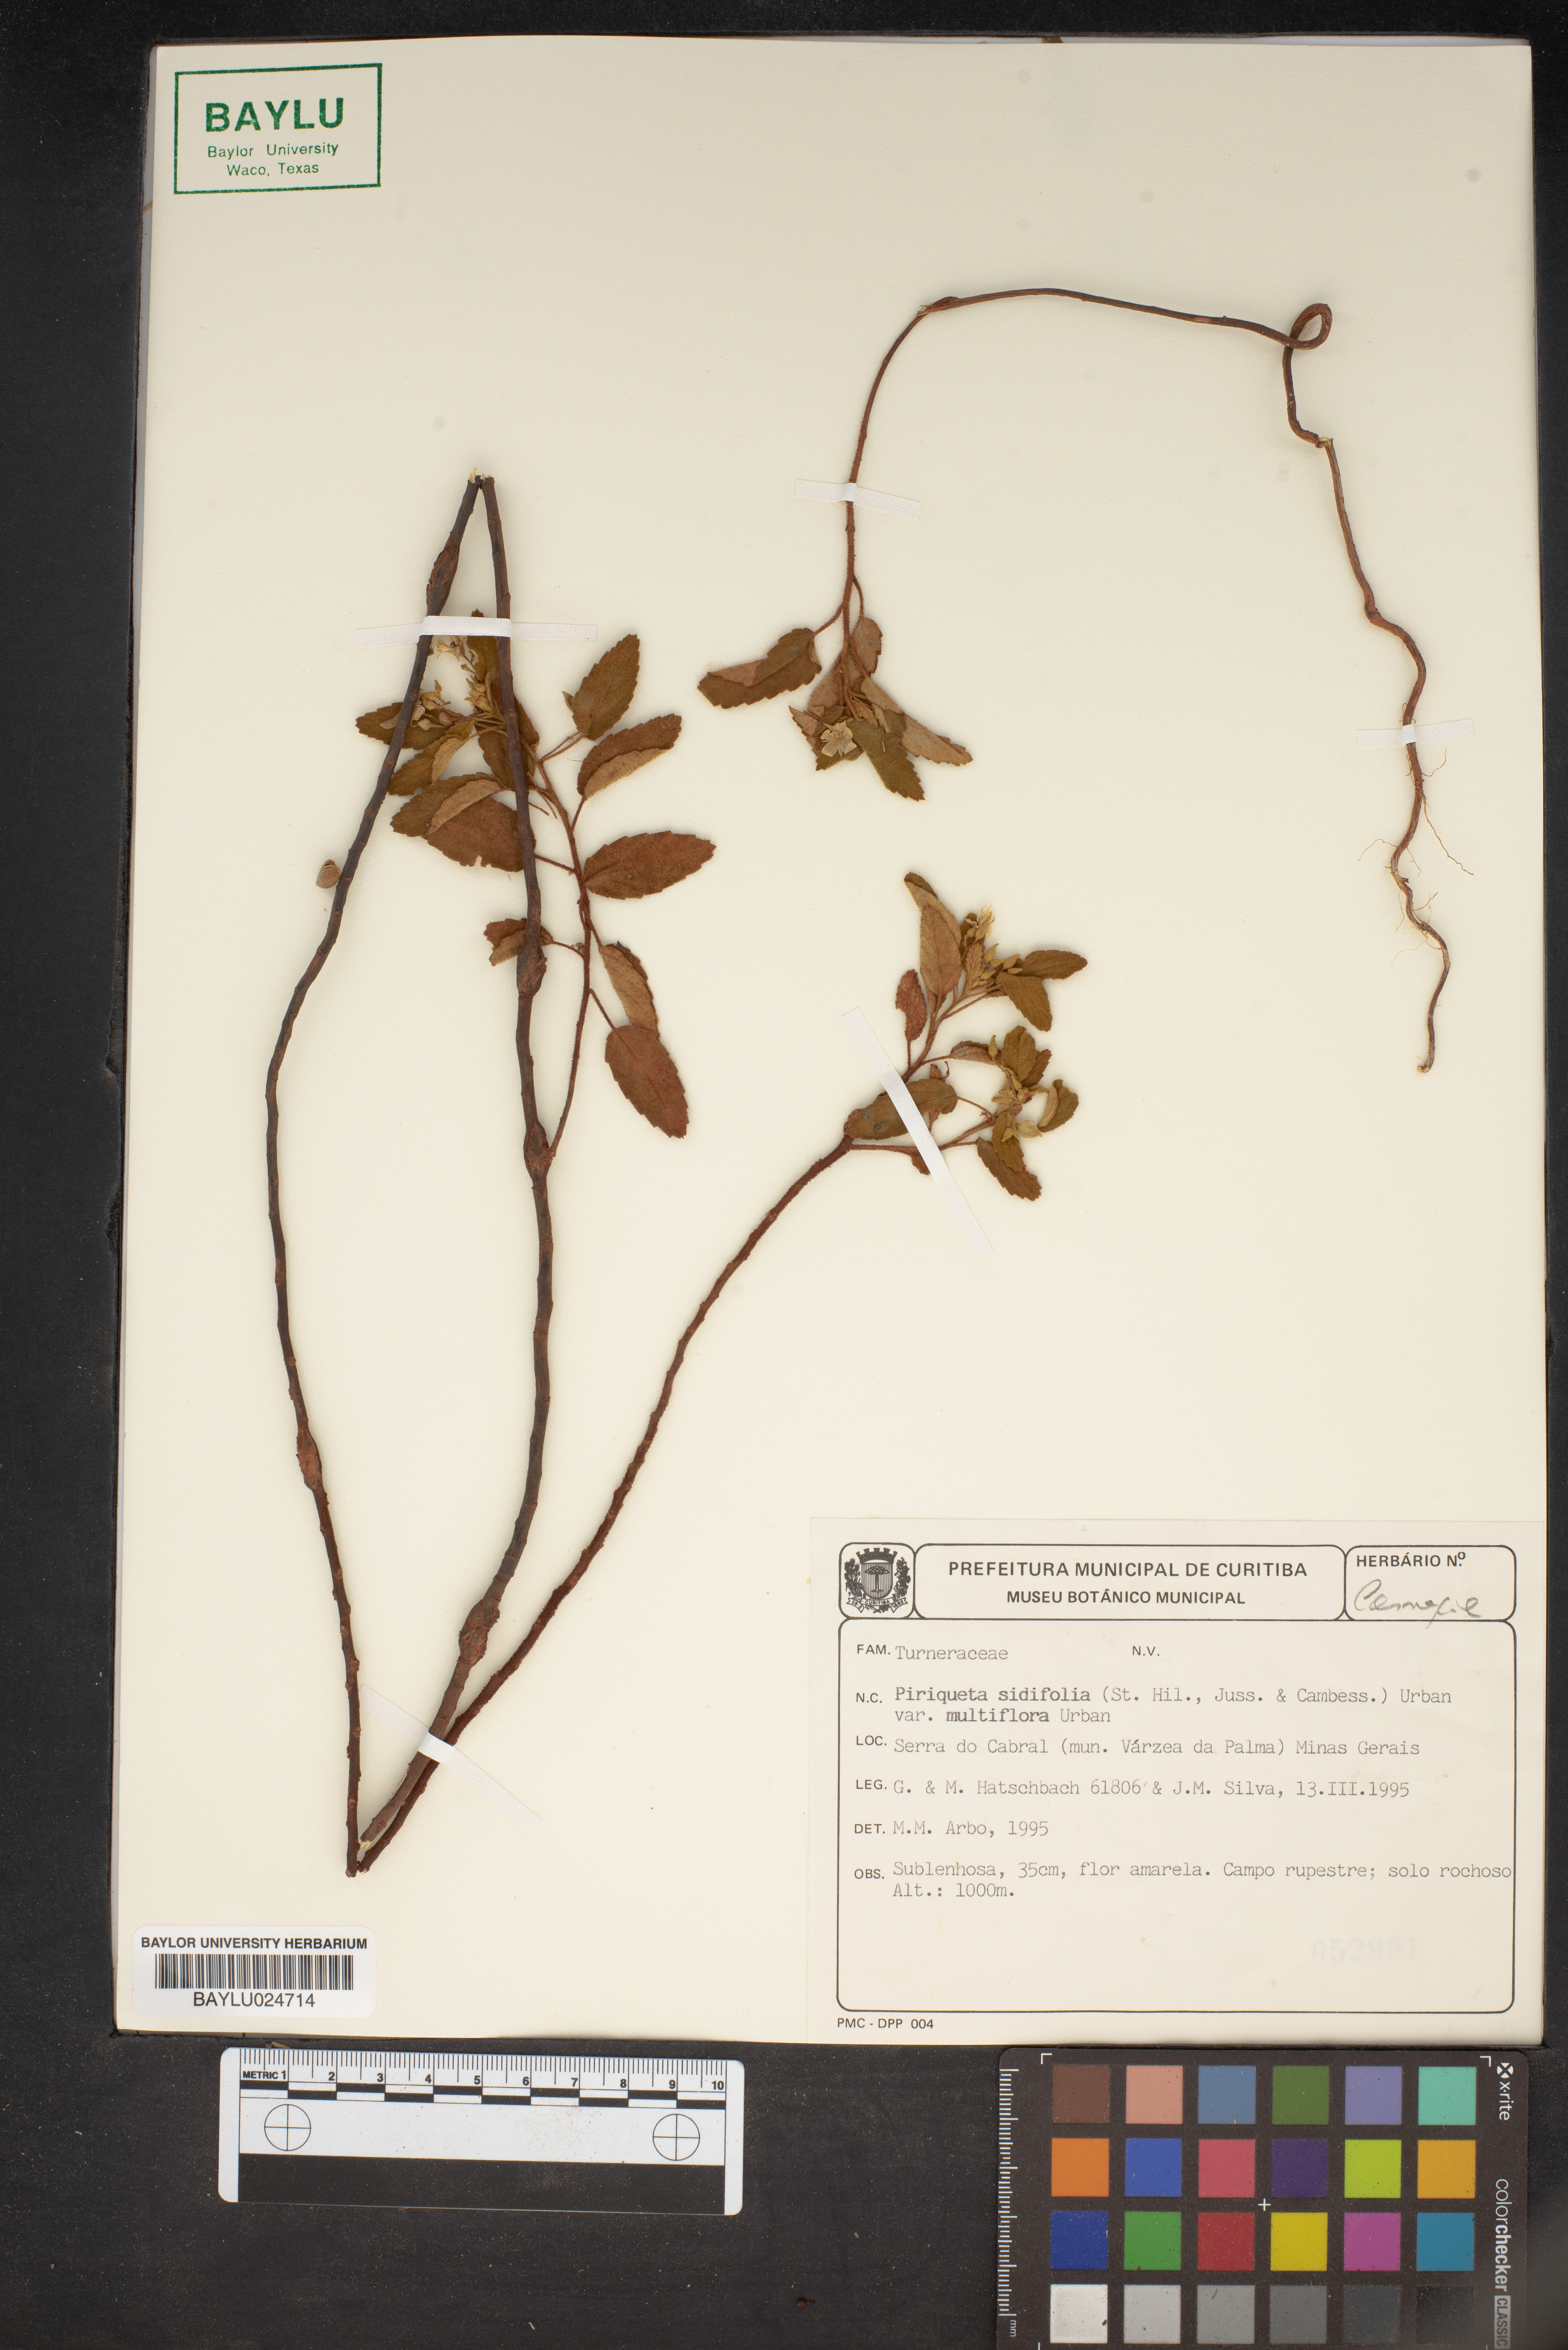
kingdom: Plantae
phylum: Tracheophyta
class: Magnoliopsida
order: Malpighiales
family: Turneraceae
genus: Piriqueta
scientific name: Piriqueta sidifolia
